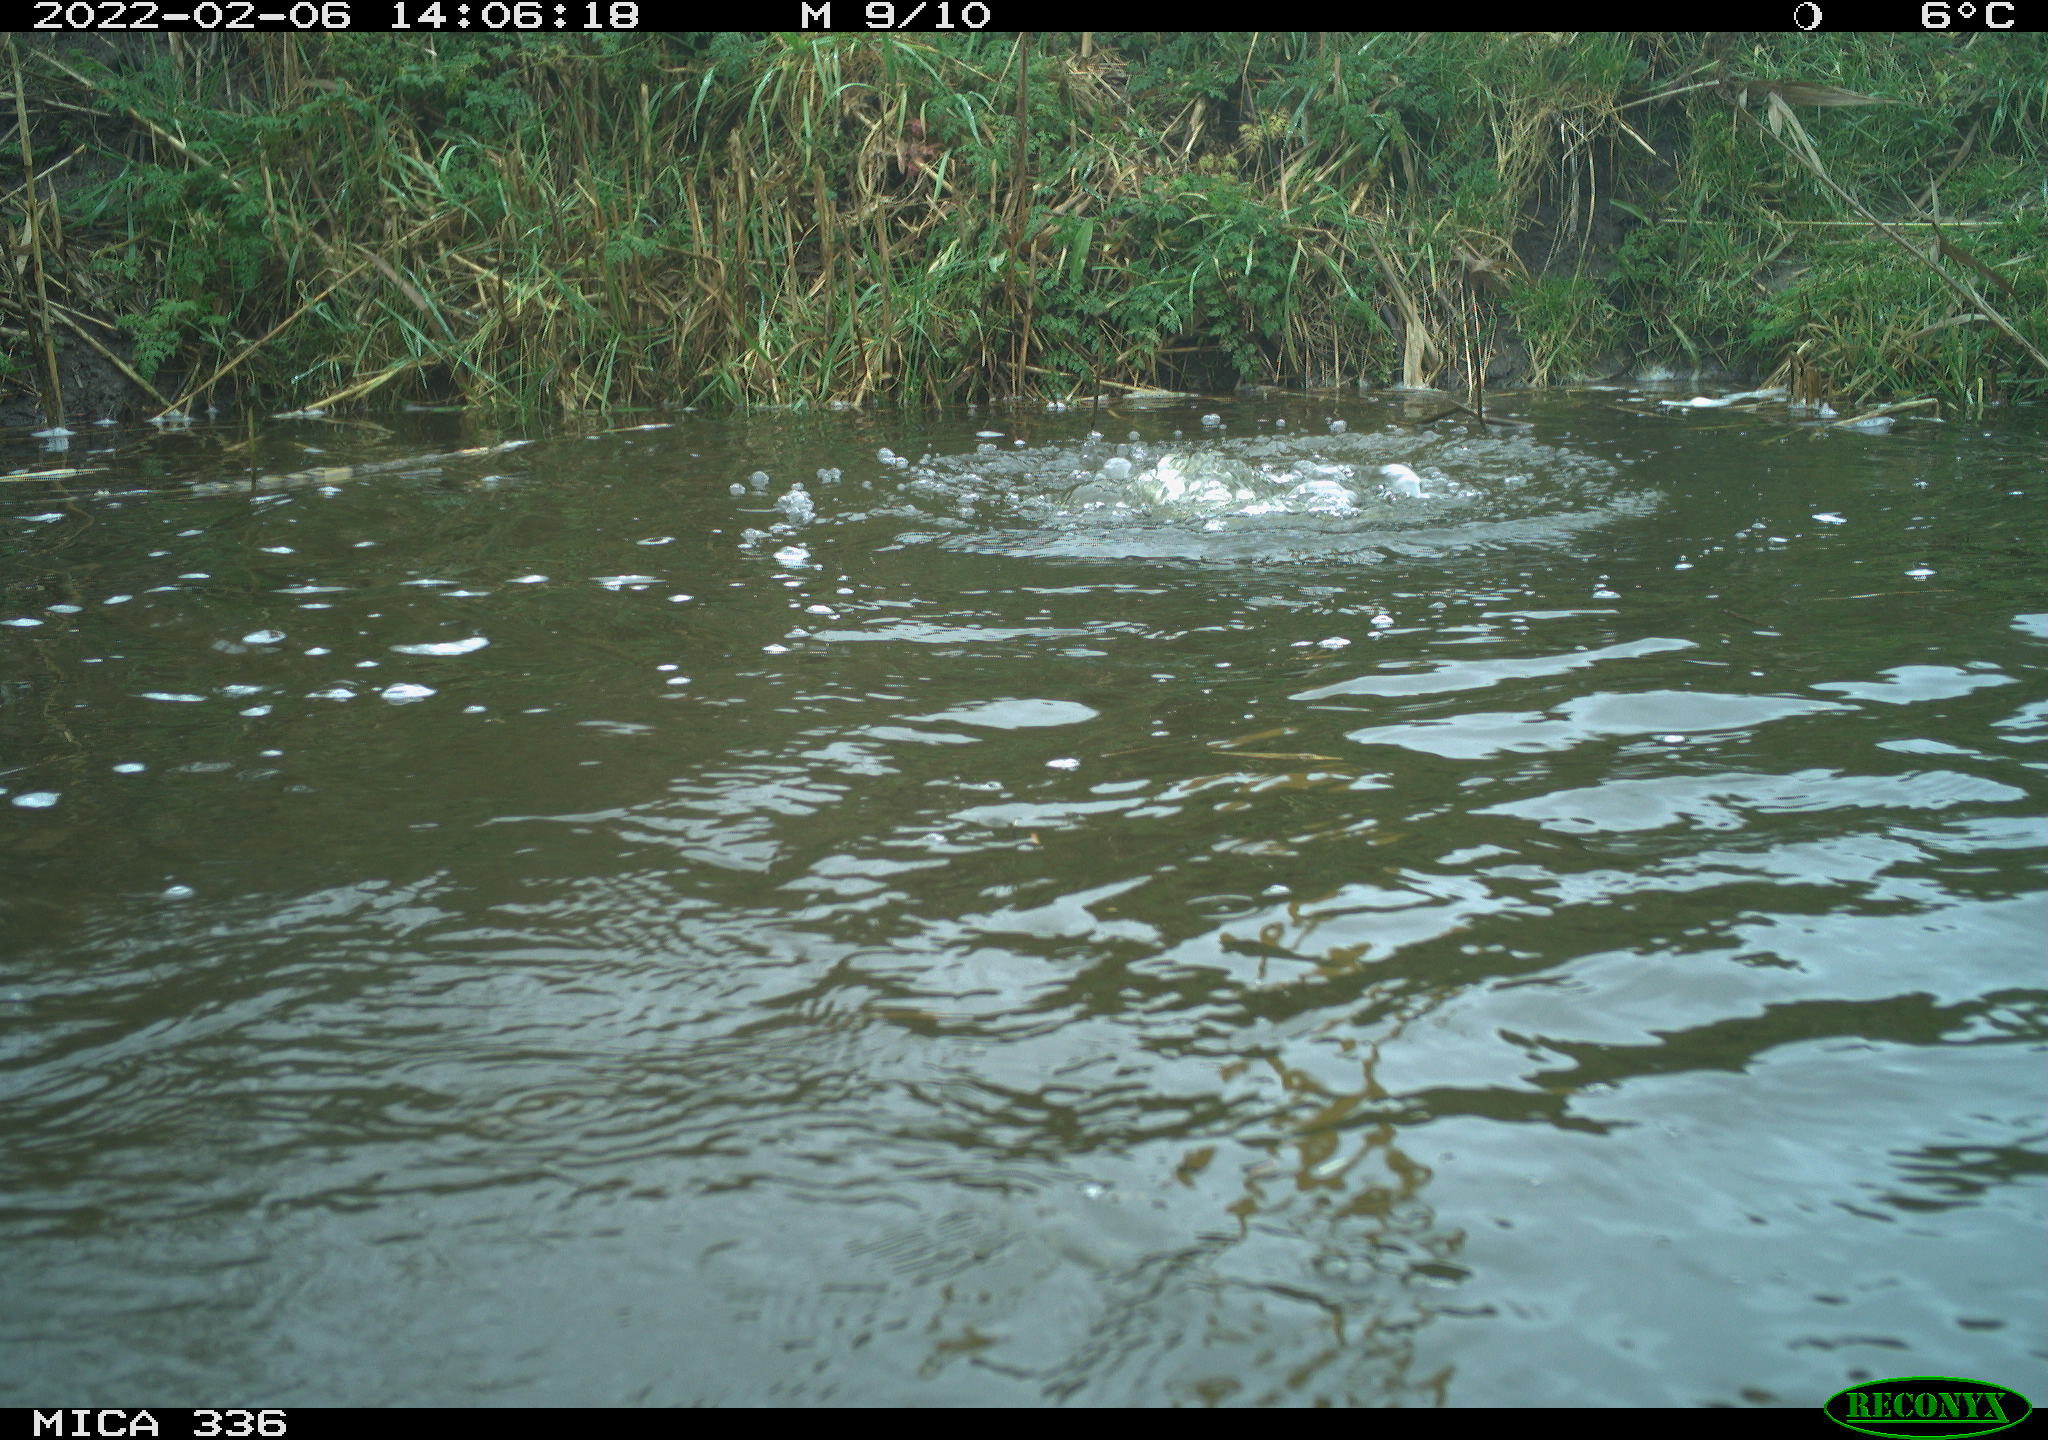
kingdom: Animalia
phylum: Chordata
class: Aves
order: Suliformes
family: Phalacrocoracidae
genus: Phalacrocorax
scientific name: Phalacrocorax carbo
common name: Great cormorant
